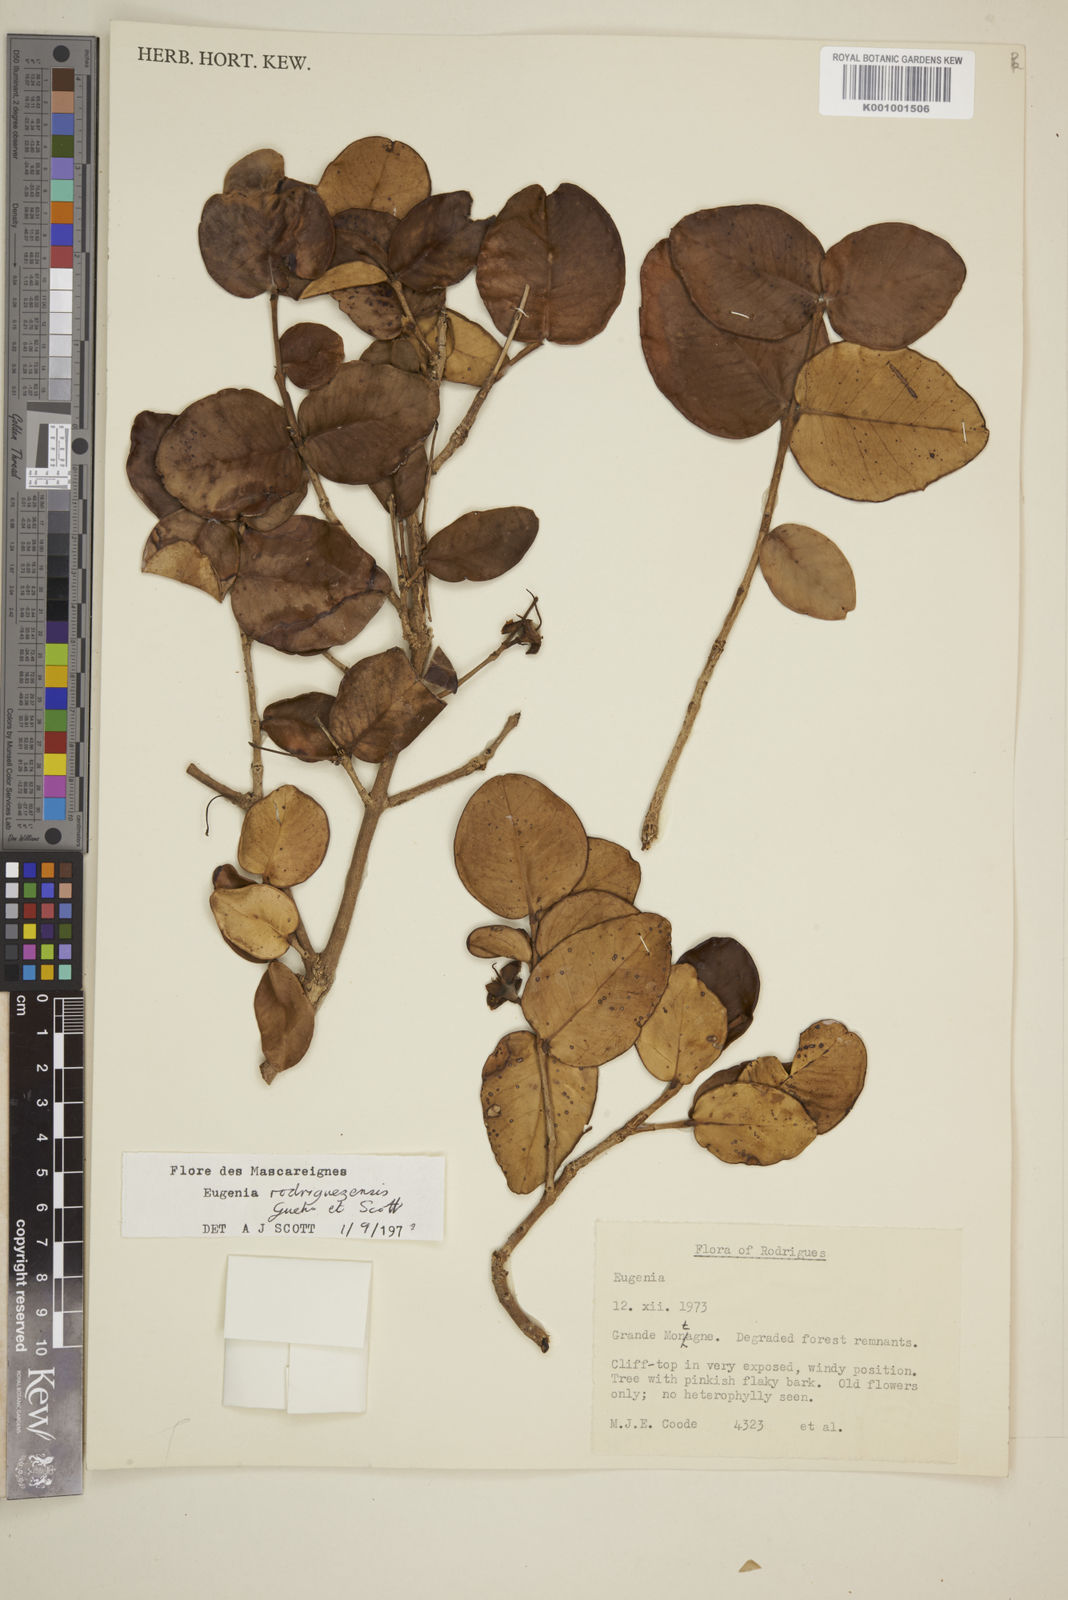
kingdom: Plantae
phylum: Tracheophyta
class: Magnoliopsida
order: Myrtales
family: Myrtaceae
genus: Eugenia
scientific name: Eugenia
